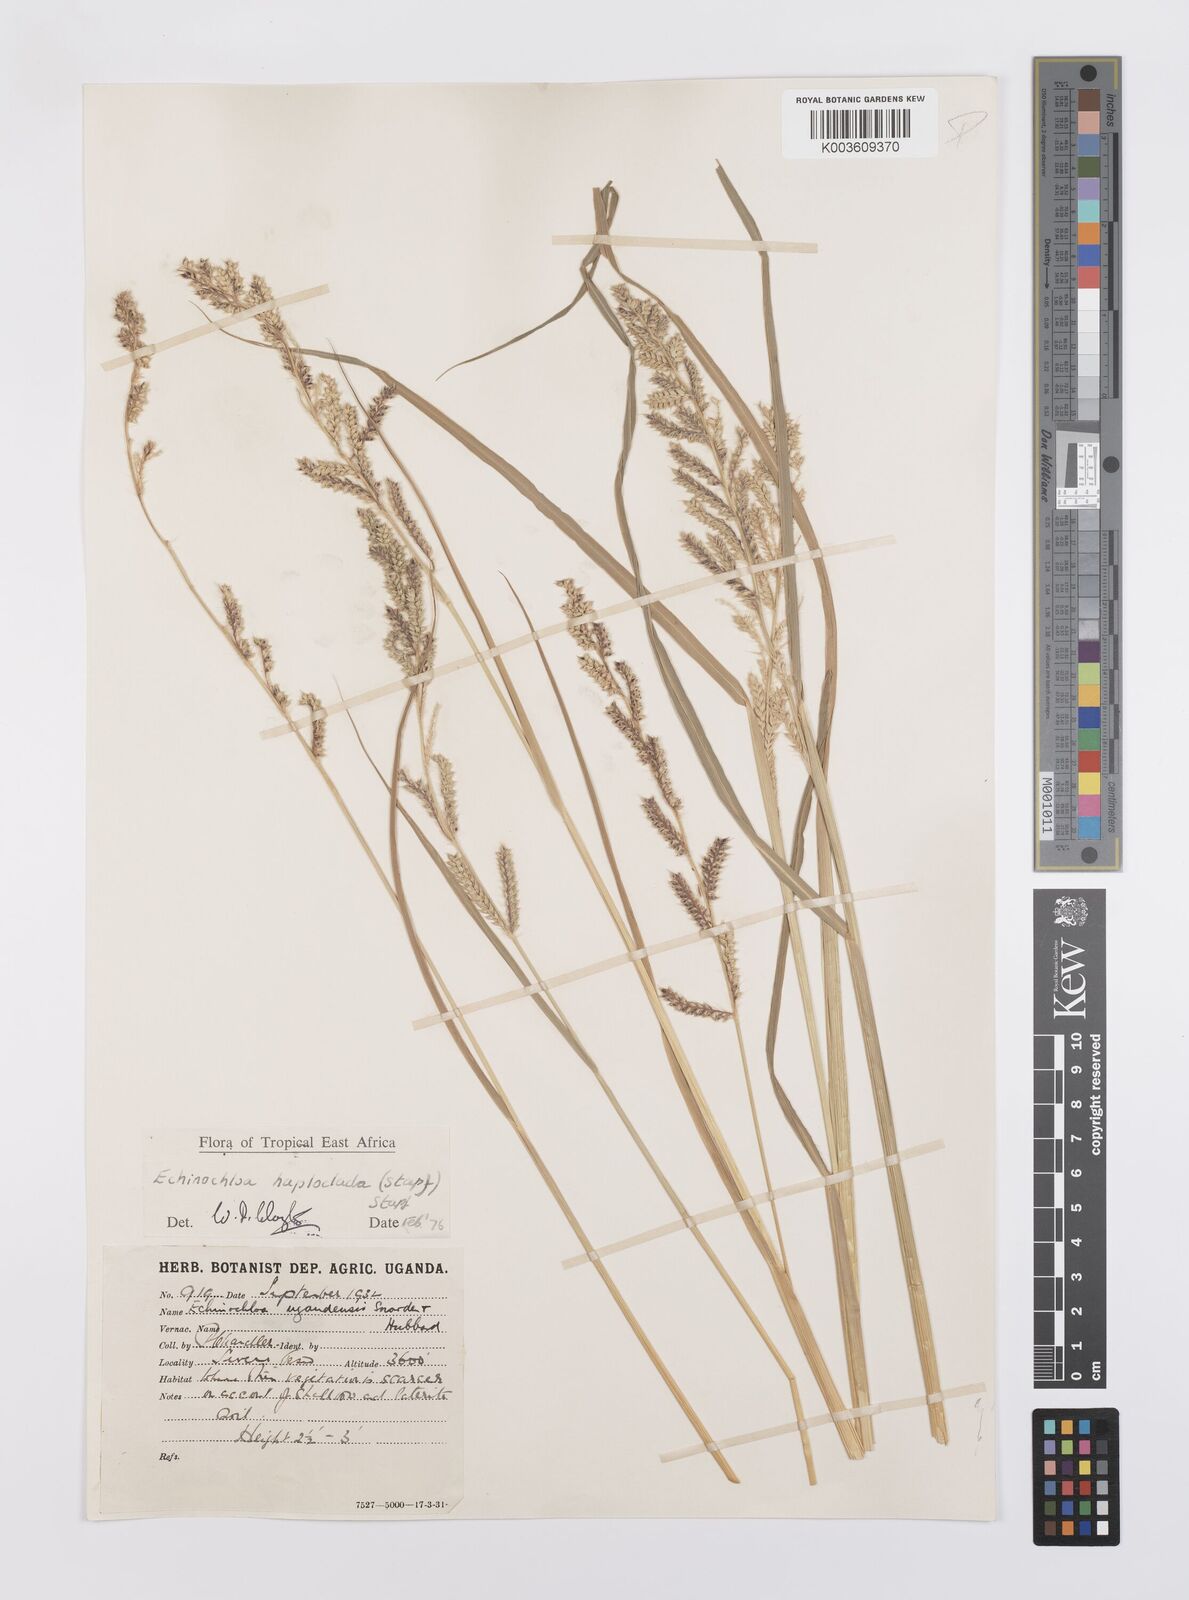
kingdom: Plantae
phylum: Tracheophyta
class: Liliopsida
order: Poales
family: Poaceae
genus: Echinochloa
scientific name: Echinochloa haploclada
